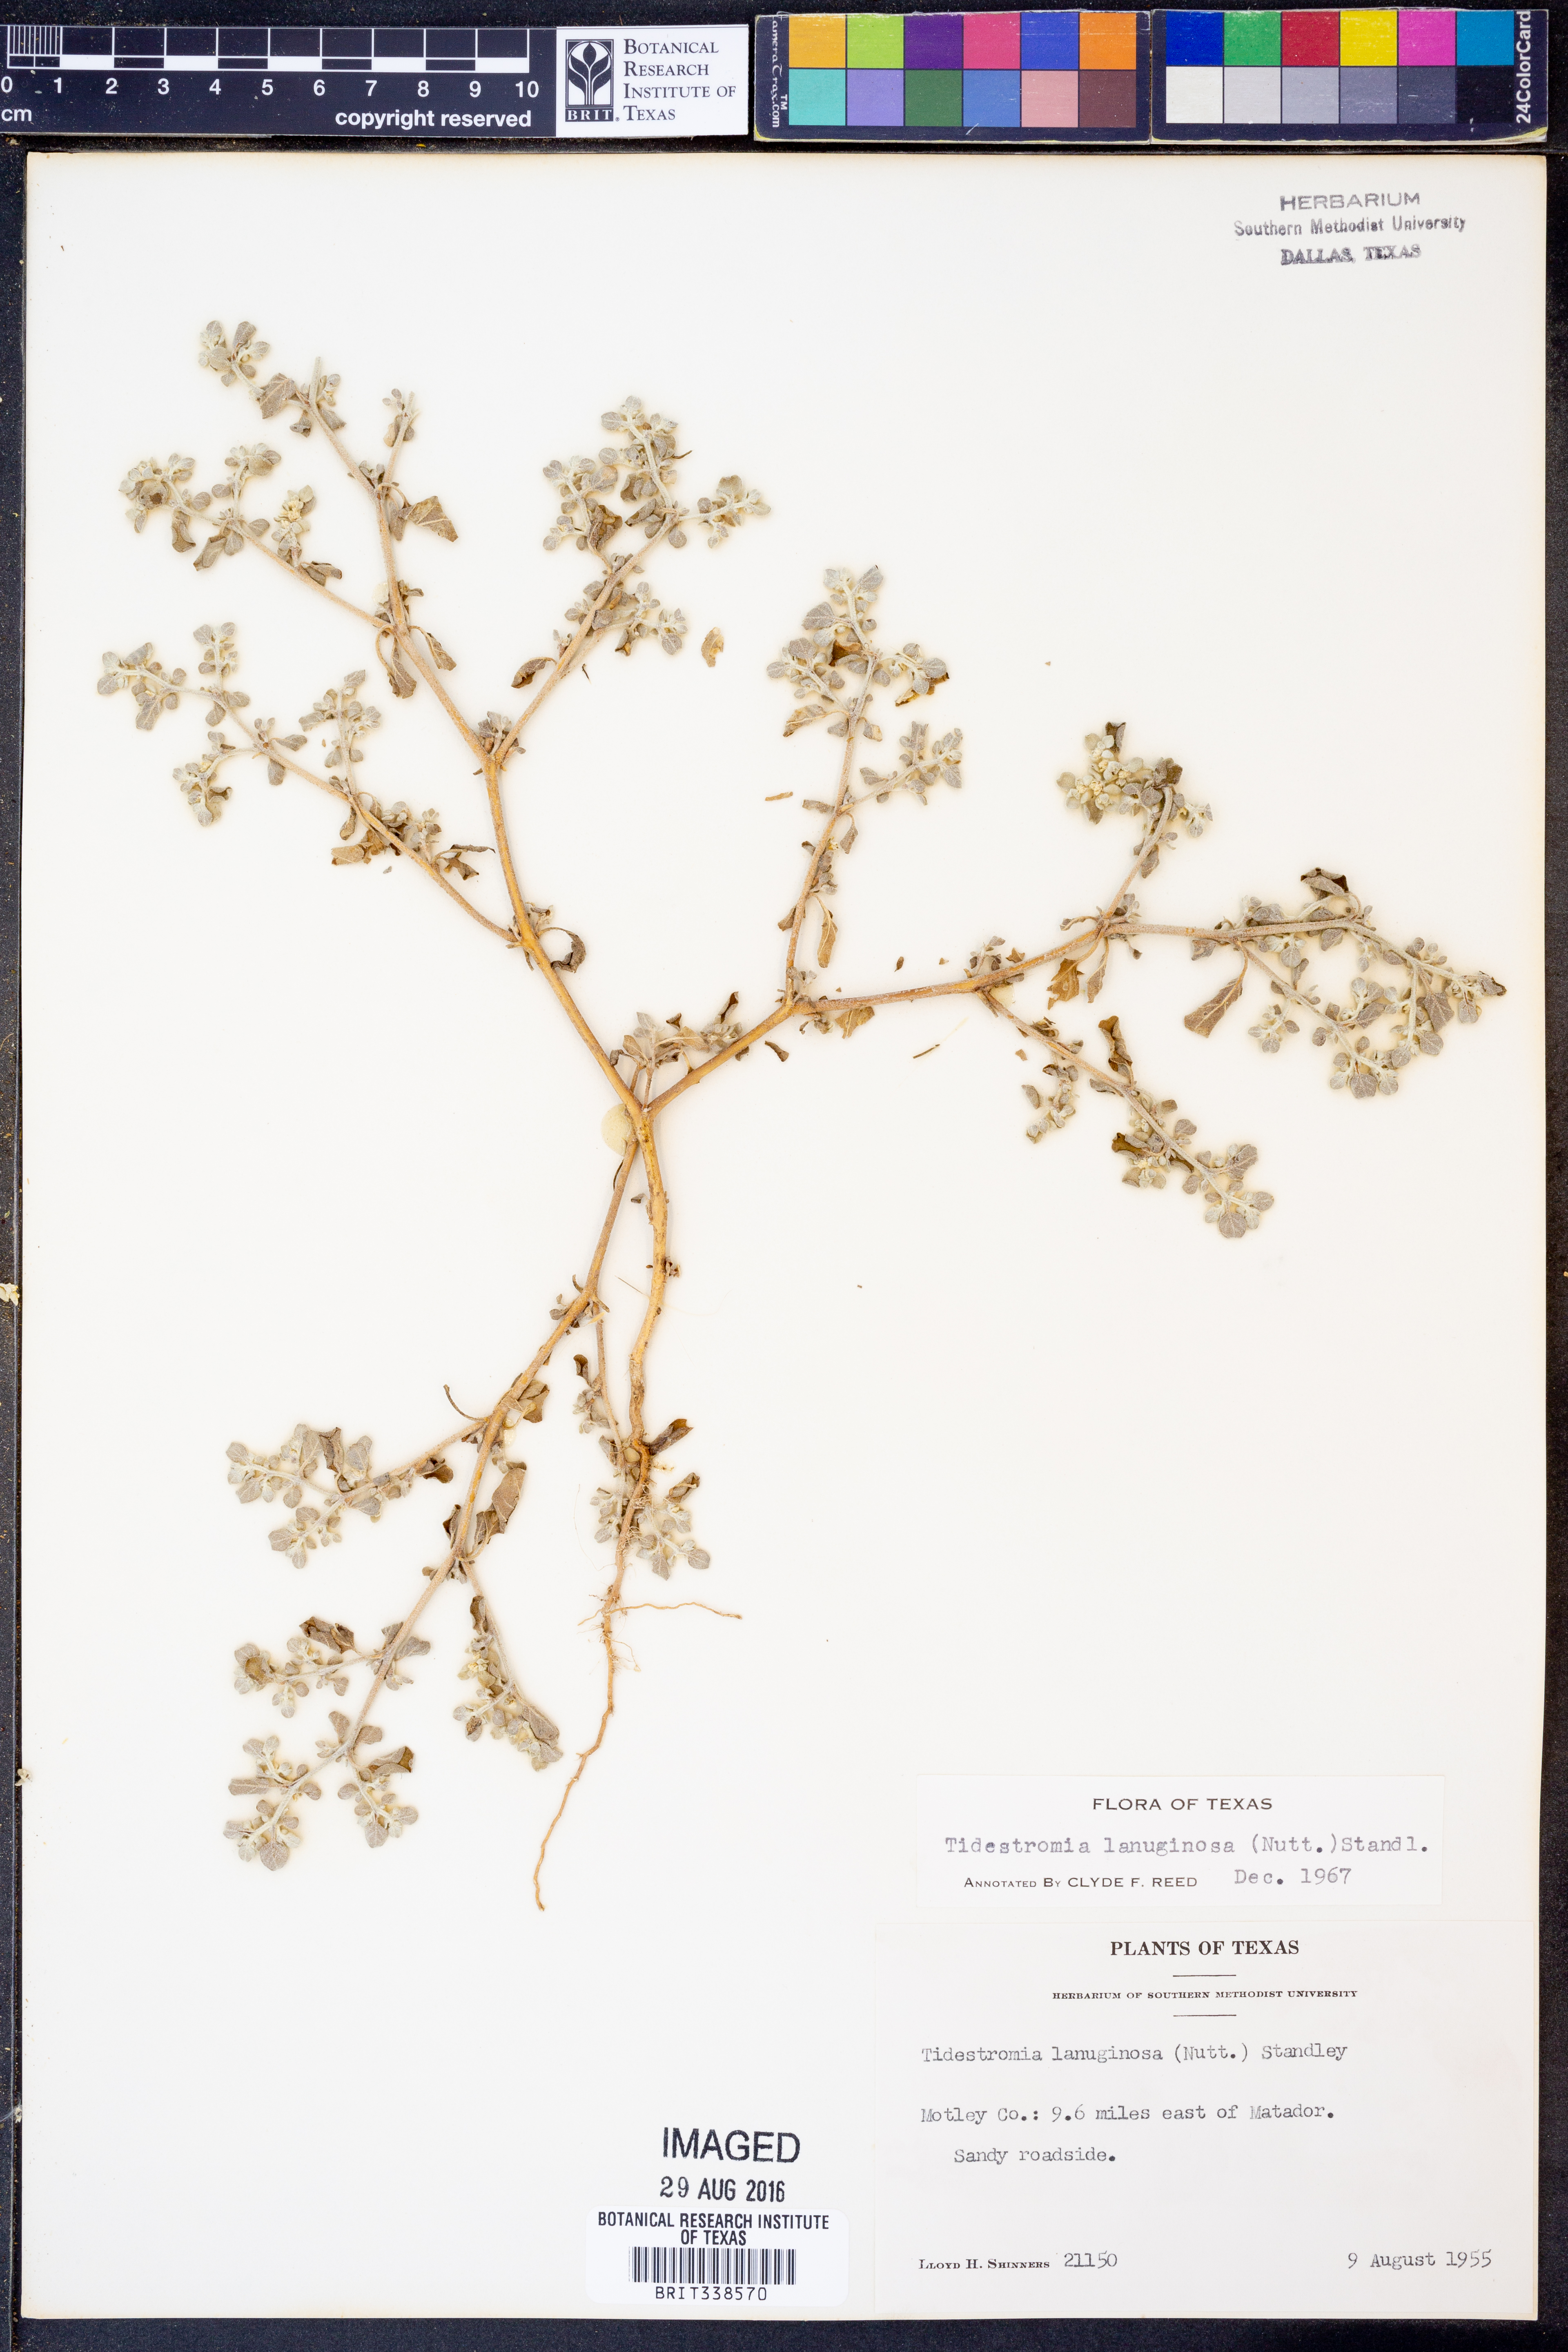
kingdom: Plantae
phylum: Tracheophyta
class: Magnoliopsida
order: Caryophyllales
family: Amaranthaceae
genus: Tidestromia
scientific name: Tidestromia lanuginosa
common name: Woolly tidestromia
